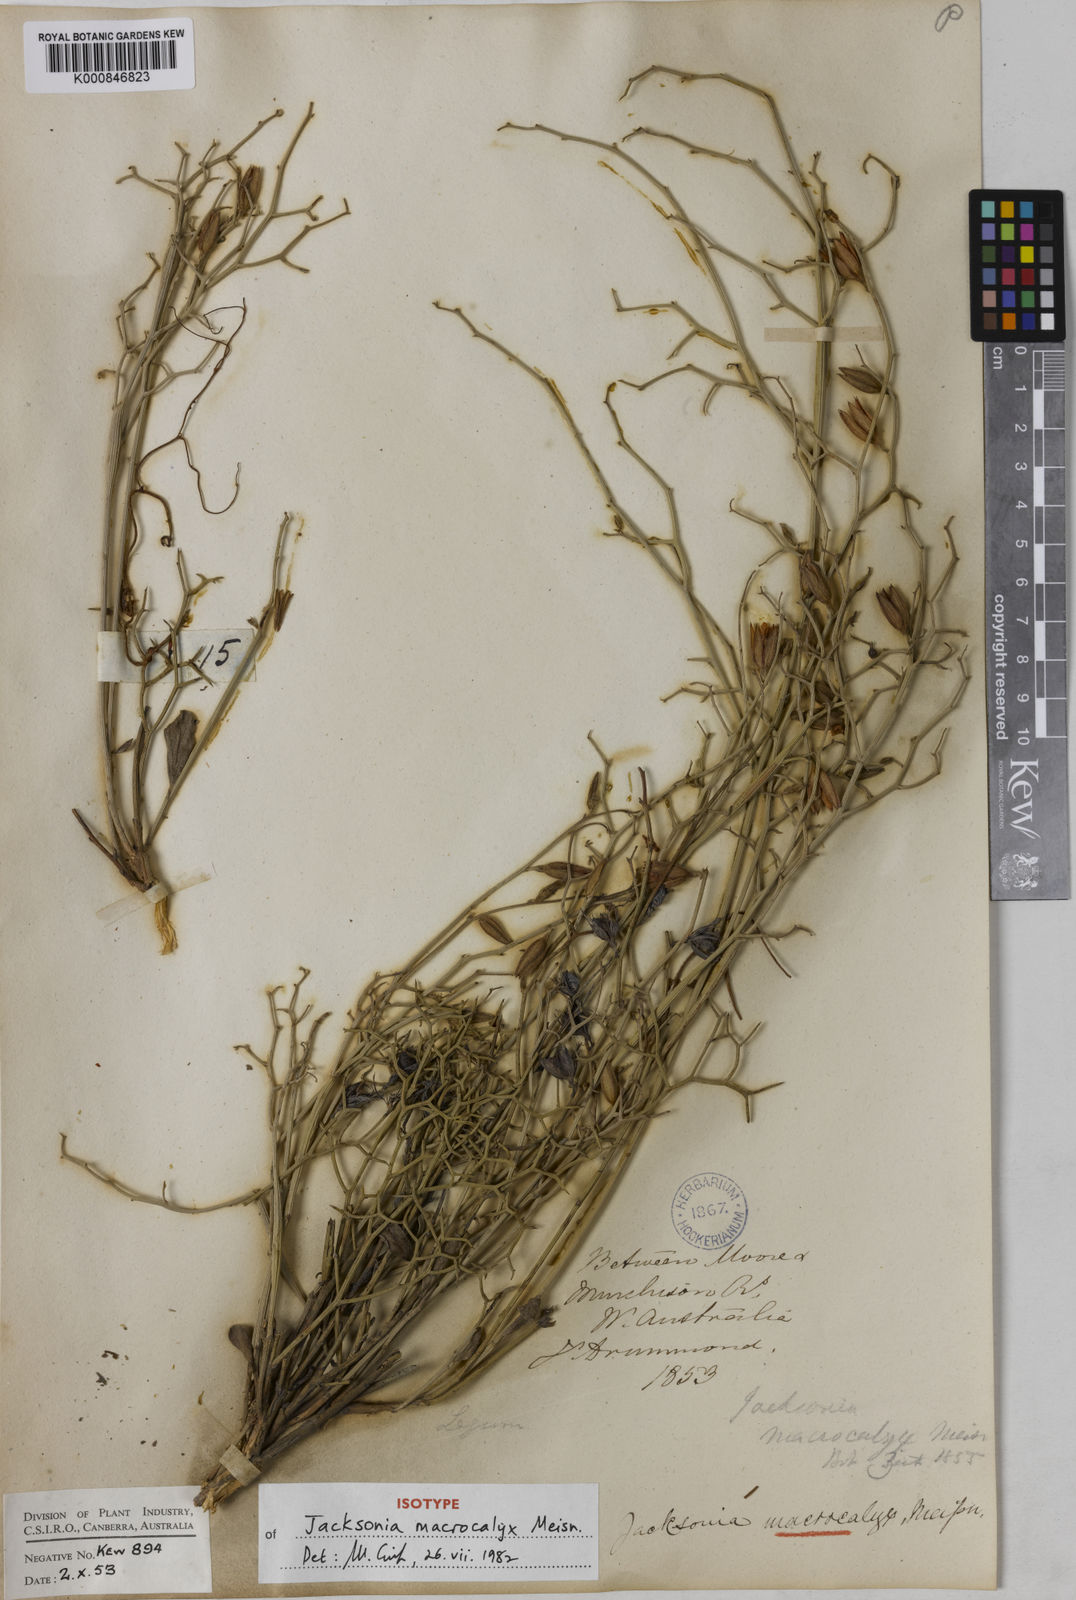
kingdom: Plantae
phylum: Tracheophyta
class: Magnoliopsida
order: Fabales
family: Fabaceae
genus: Jacksonia
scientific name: Jacksonia macrocalyx
